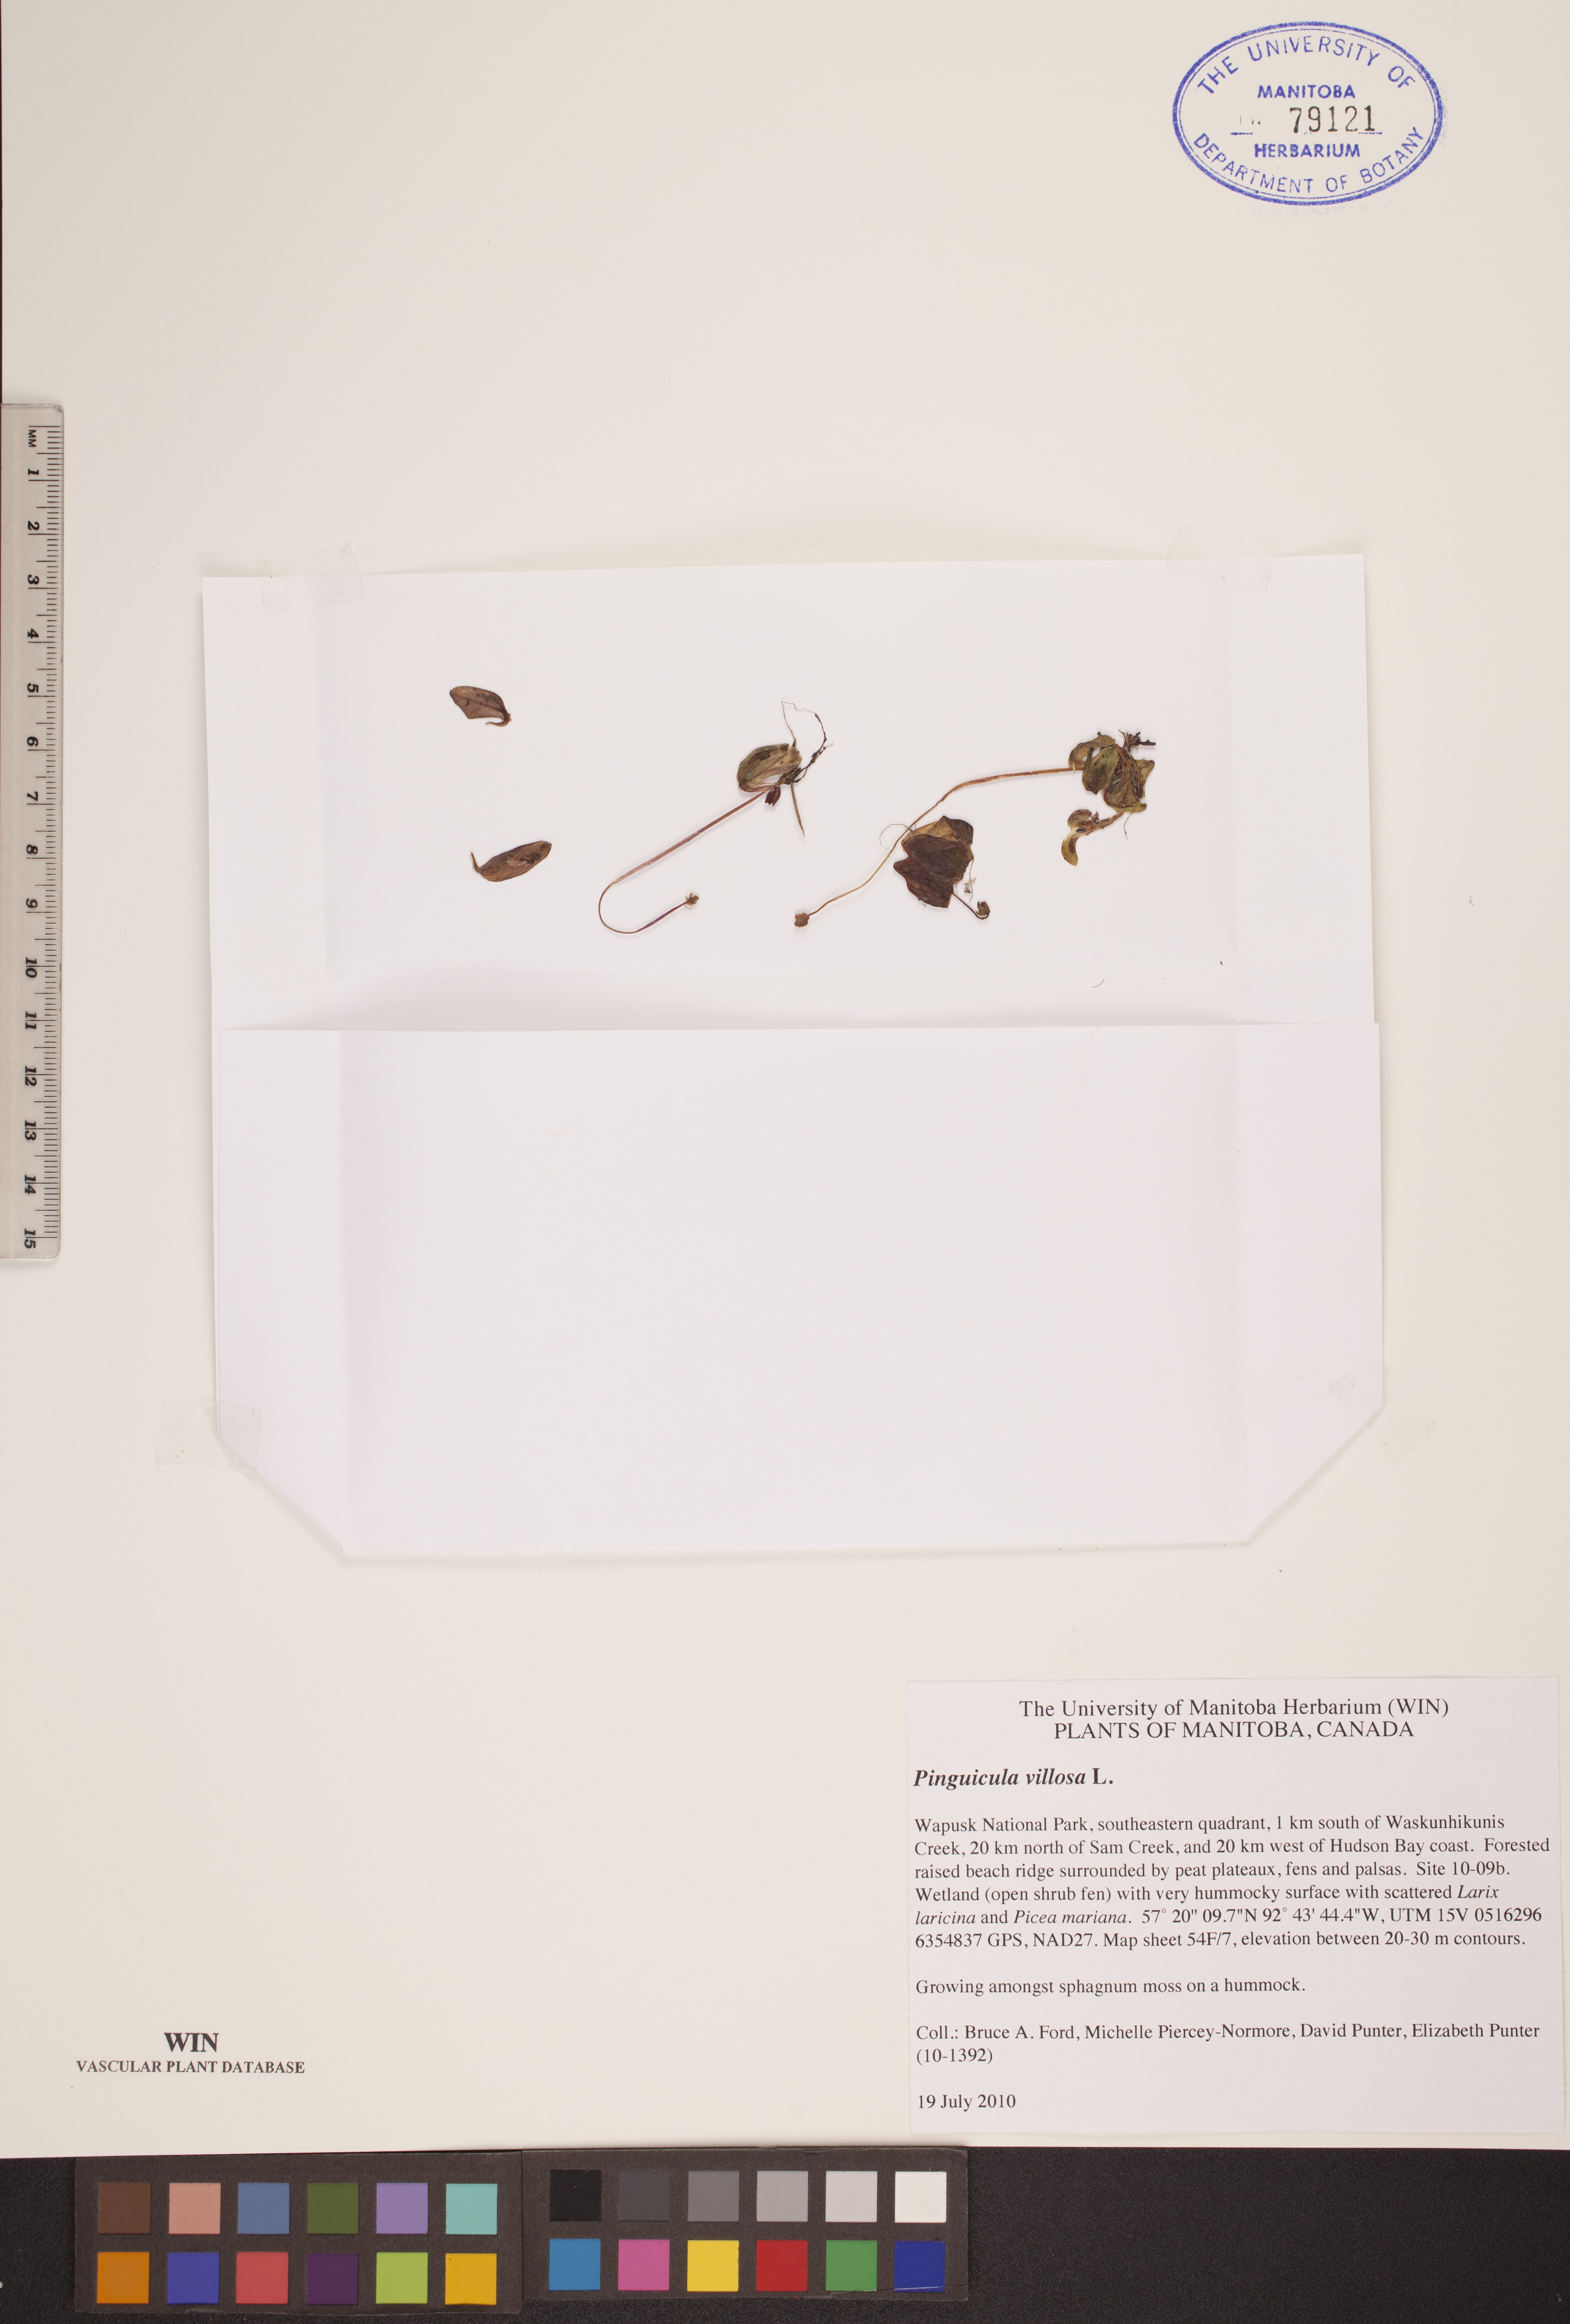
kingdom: Plantae
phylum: Tracheophyta
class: Magnoliopsida
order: Lamiales
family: Lentibulariaceae
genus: Pinguicula
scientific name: Pinguicula villosa
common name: Hairy butterwort
